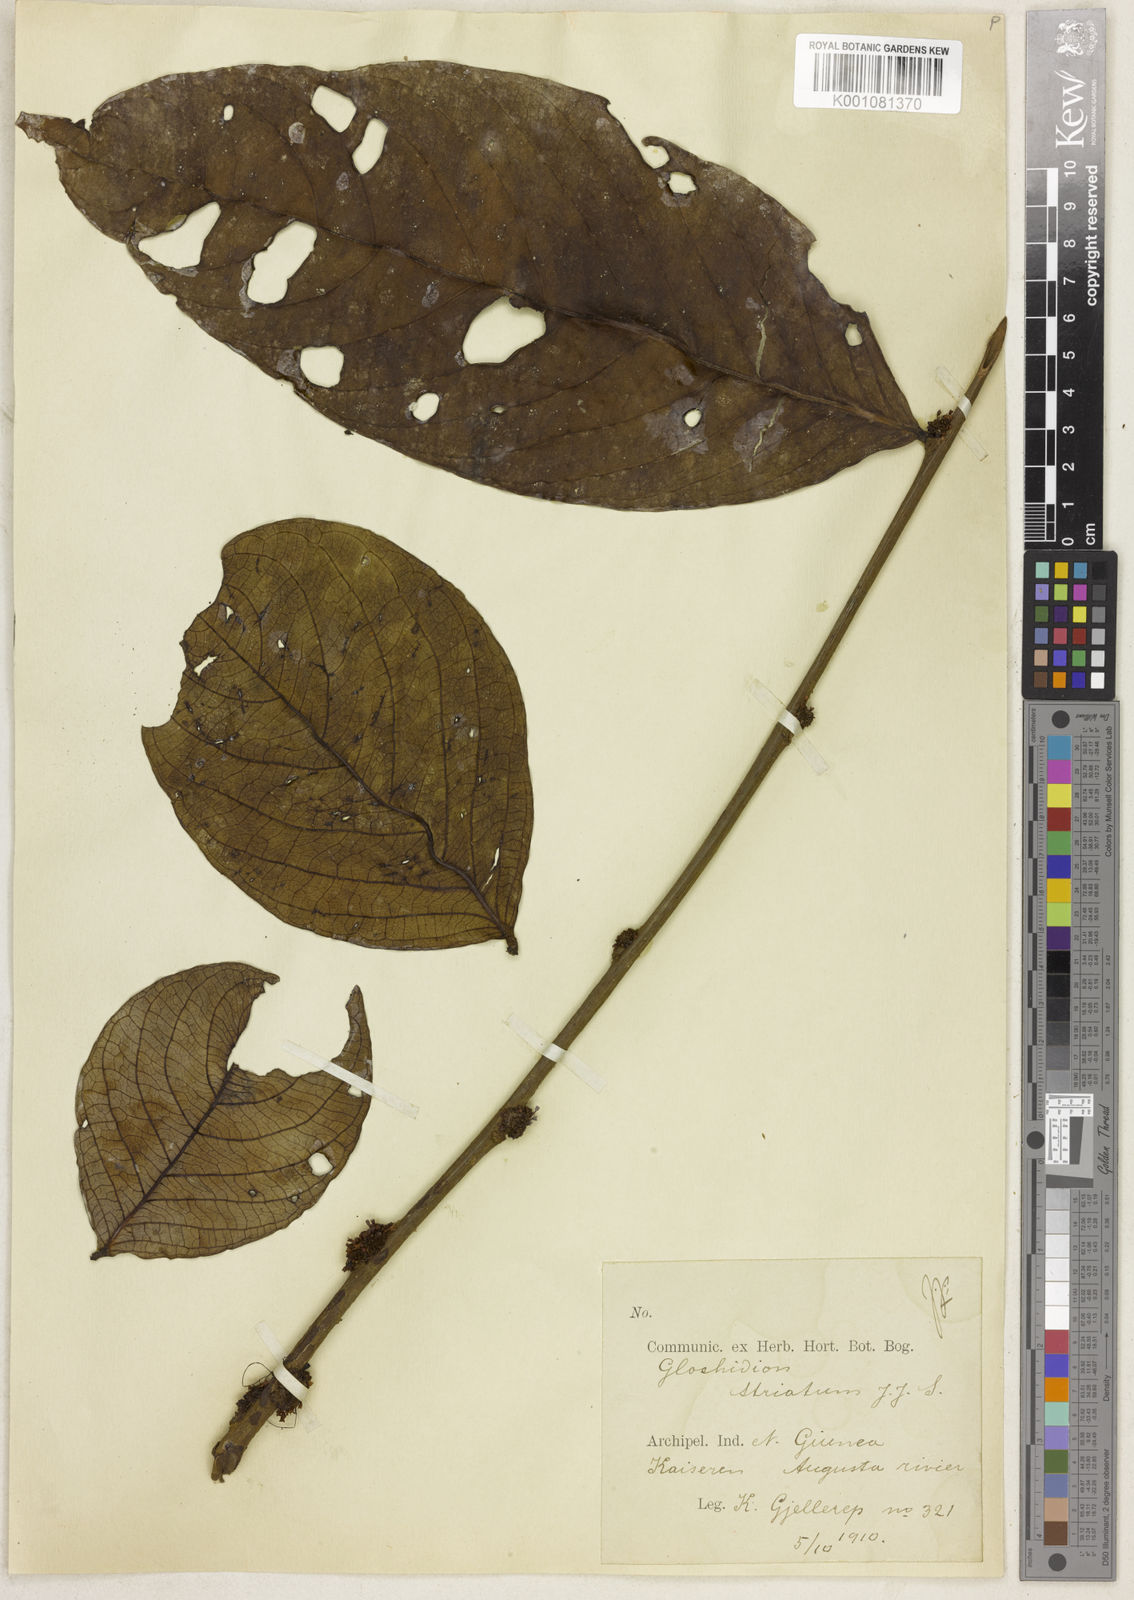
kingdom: Plantae
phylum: Tracheophyta
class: Magnoliopsida
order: Malpighiales
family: Phyllanthaceae
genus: Glochidion
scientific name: Glochidion striatum
